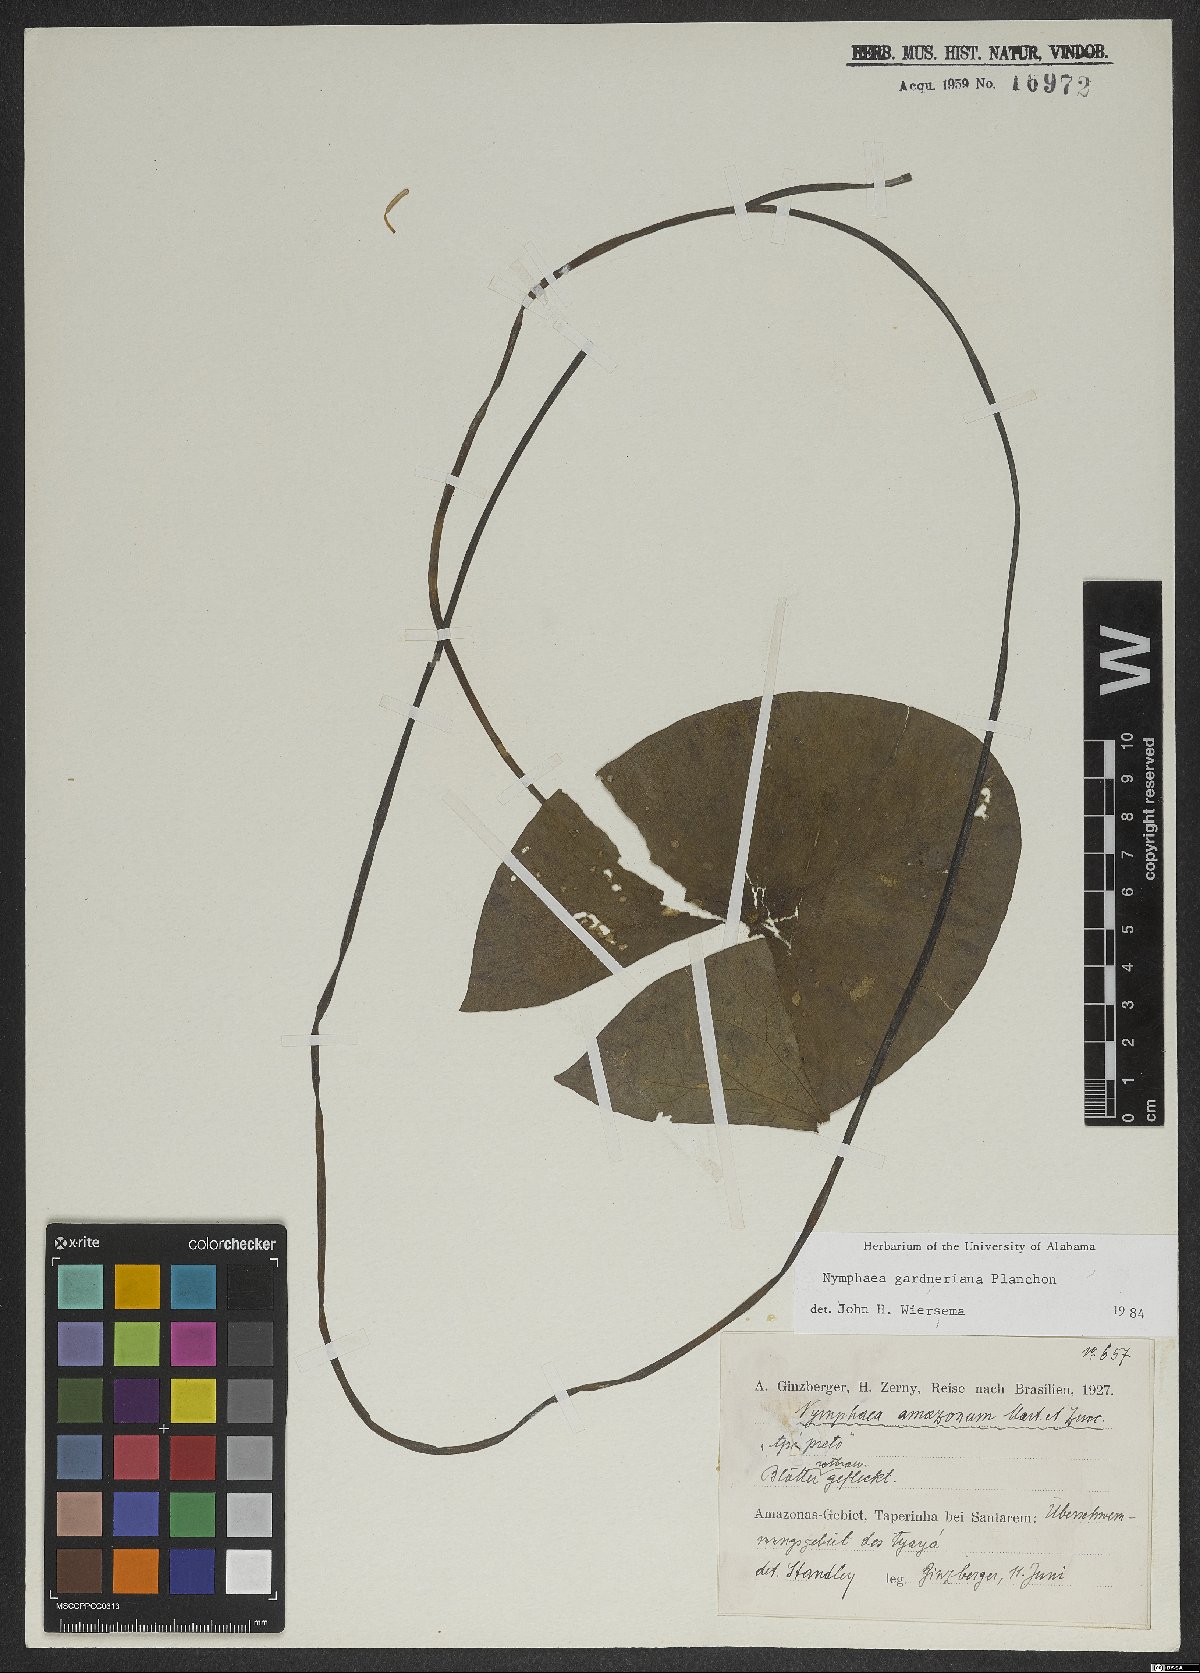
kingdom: Plantae
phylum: Tracheophyta
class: Magnoliopsida
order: Nymphaeales
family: Nymphaeaceae
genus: Nymphaea
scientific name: Nymphaea gardneriana
